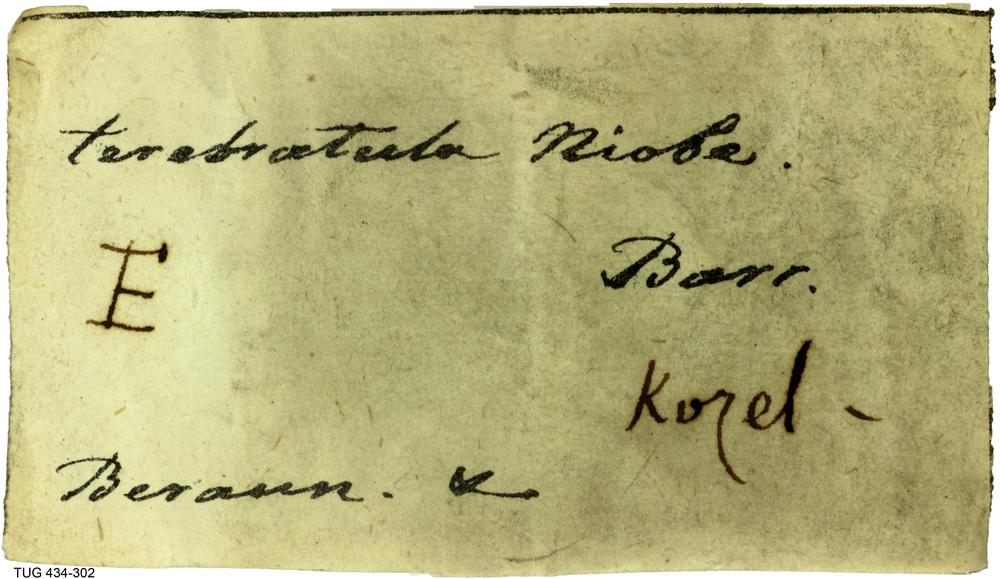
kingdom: Animalia
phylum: Brachiopoda
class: Rhynchonellata
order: Rhynchonellida
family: Camarotoechiidae
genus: Plagiorhyncha
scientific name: Plagiorhyncha
